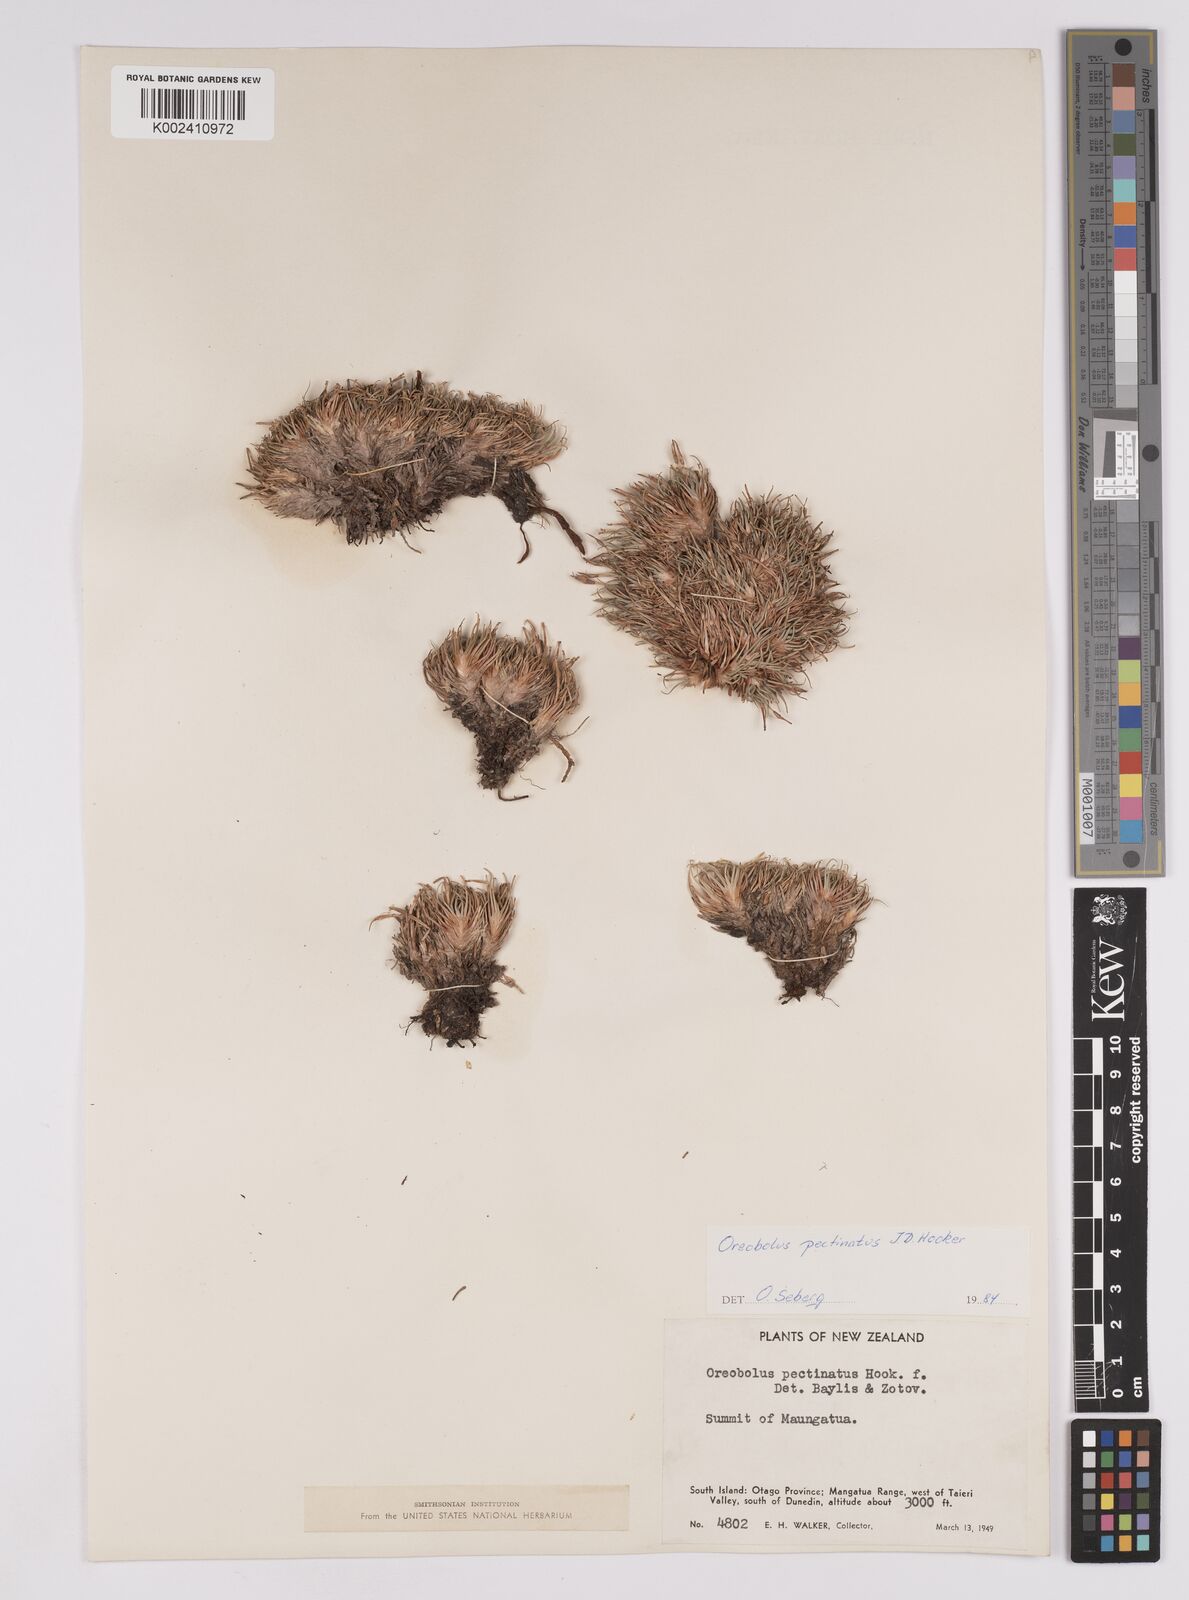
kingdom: Plantae
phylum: Tracheophyta
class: Liliopsida
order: Poales
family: Cyperaceae
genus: Oreobolus
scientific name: Oreobolus pectinatus
